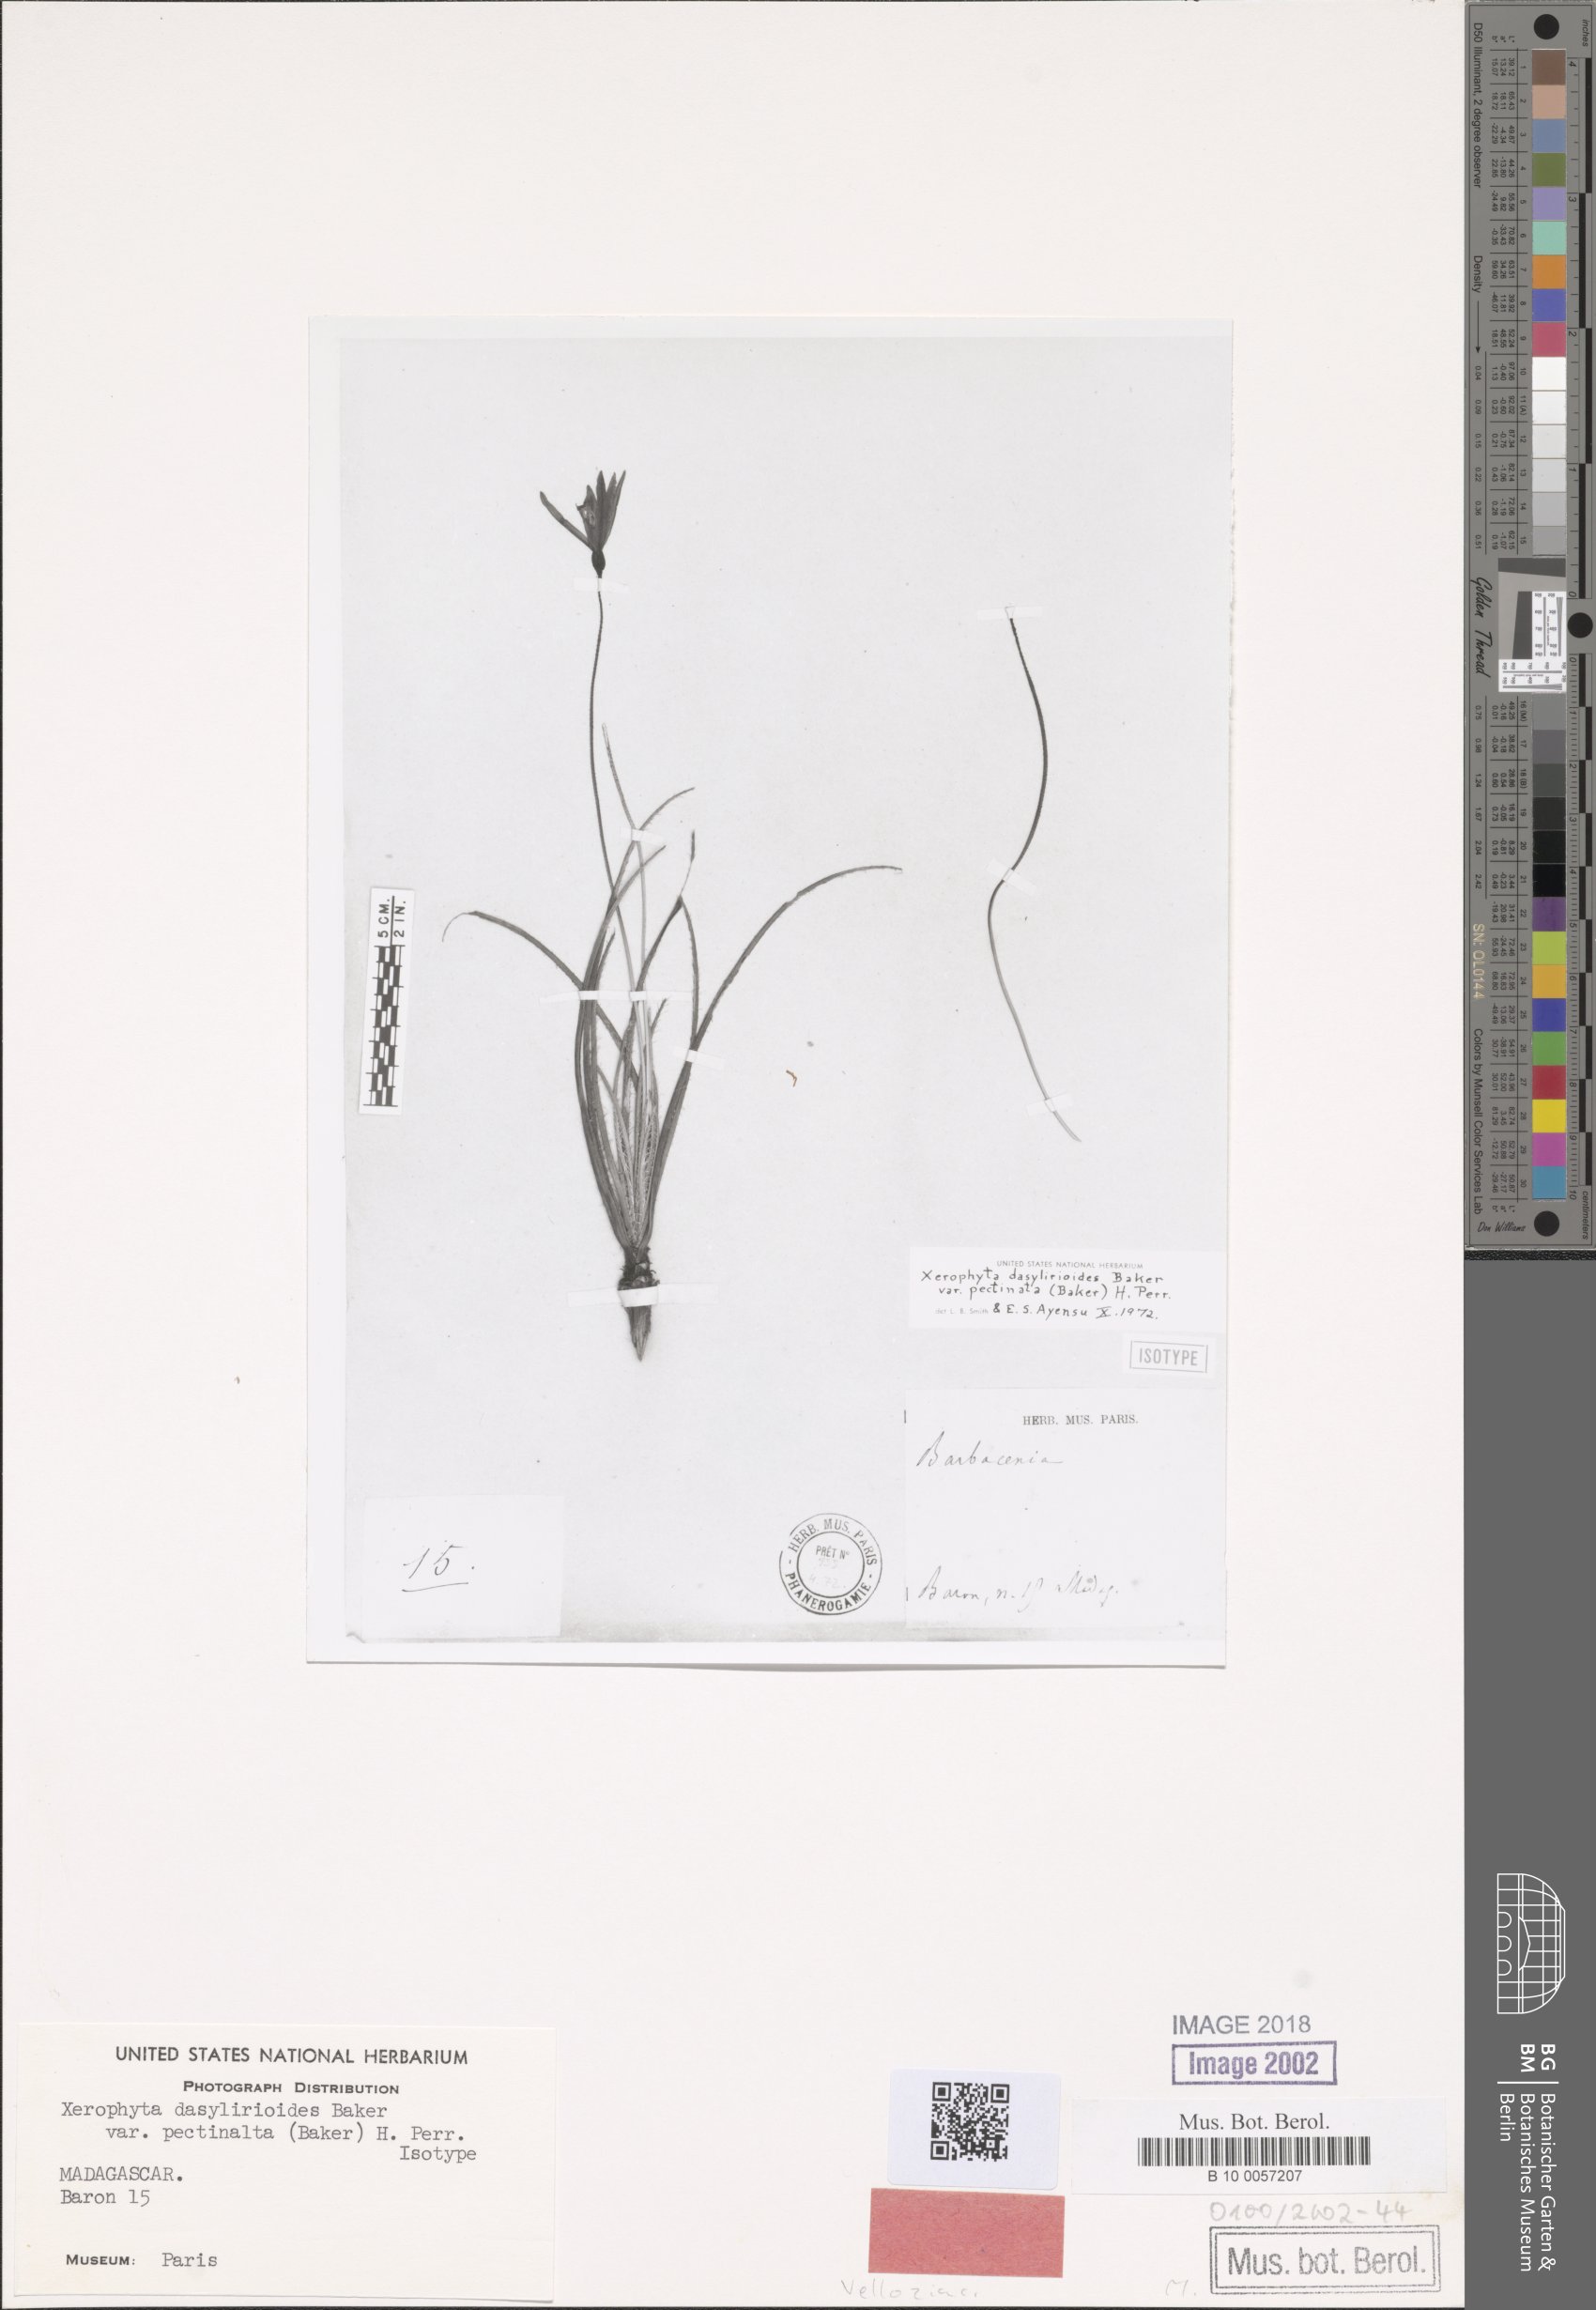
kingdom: Plantae
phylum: Tracheophyta
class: Liliopsida
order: Pandanales
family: Velloziaceae
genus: Xerophyta
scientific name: Xerophyta pectinata
